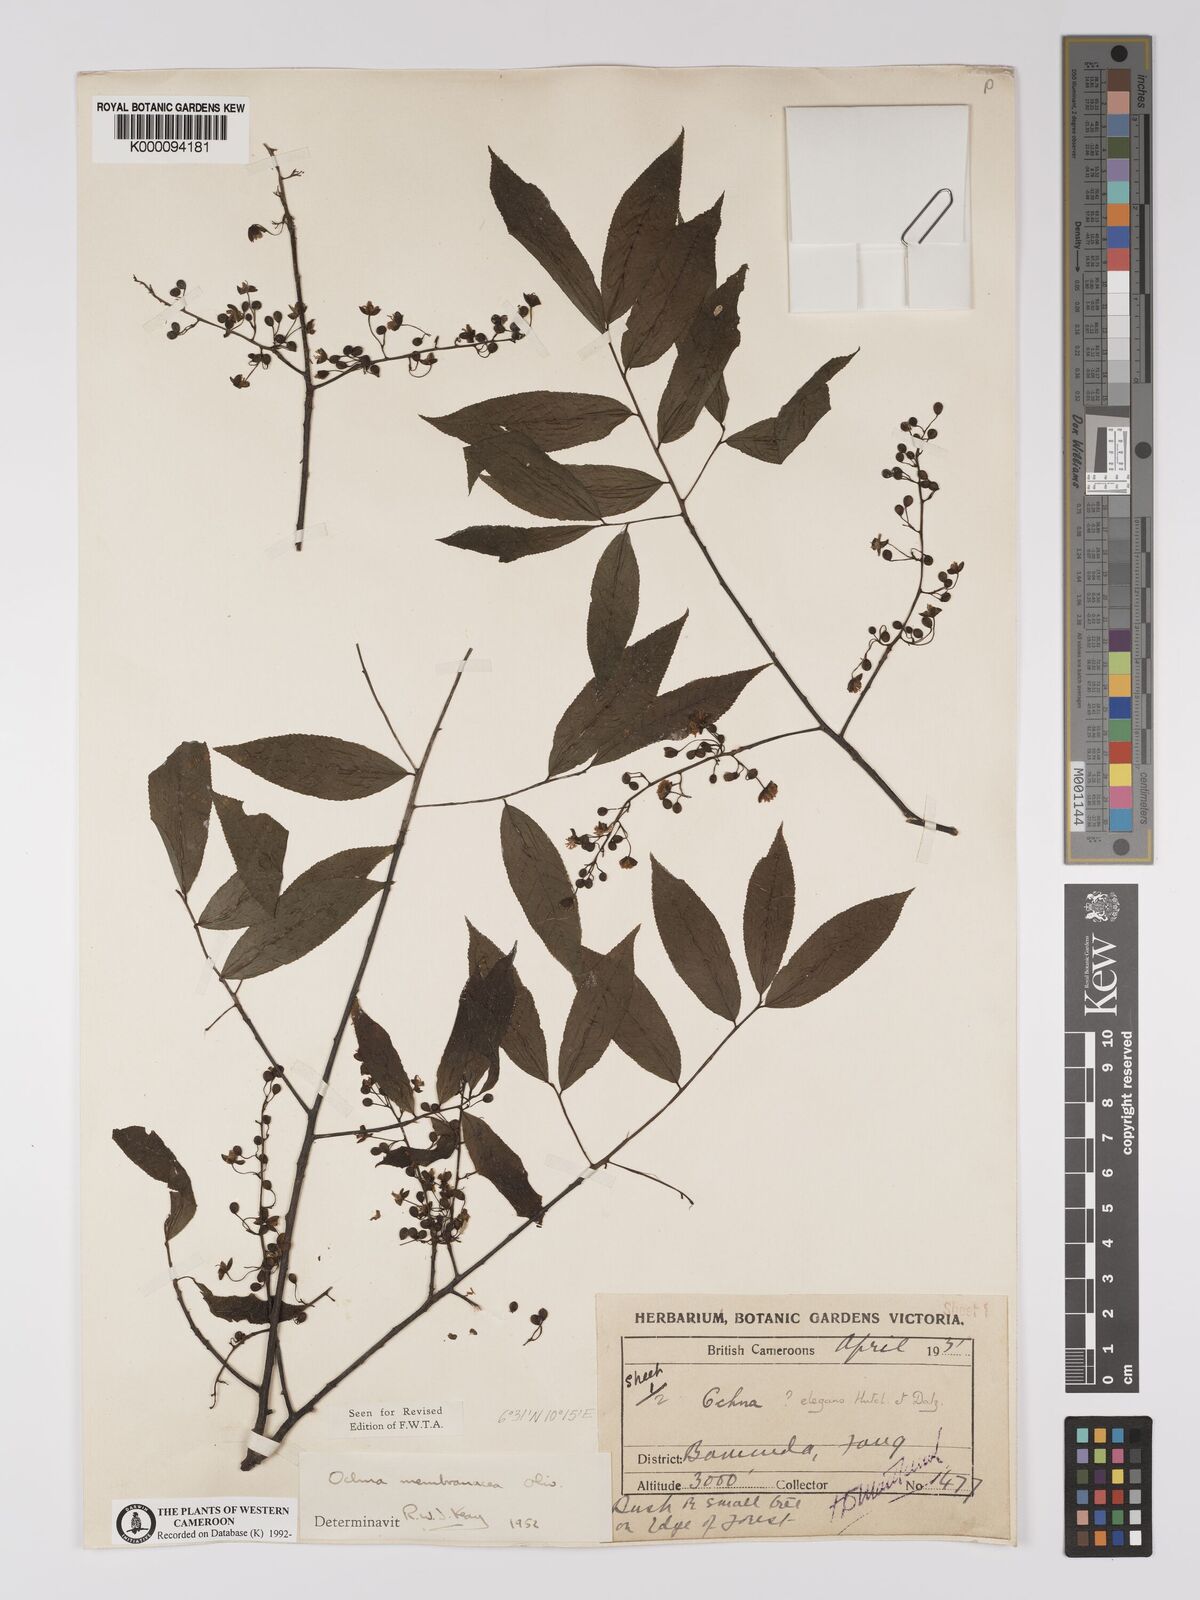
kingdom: Plantae
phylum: Tracheophyta
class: Magnoliopsida
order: Malpighiales
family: Ochnaceae
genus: Ochna
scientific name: Ochna membranacea
